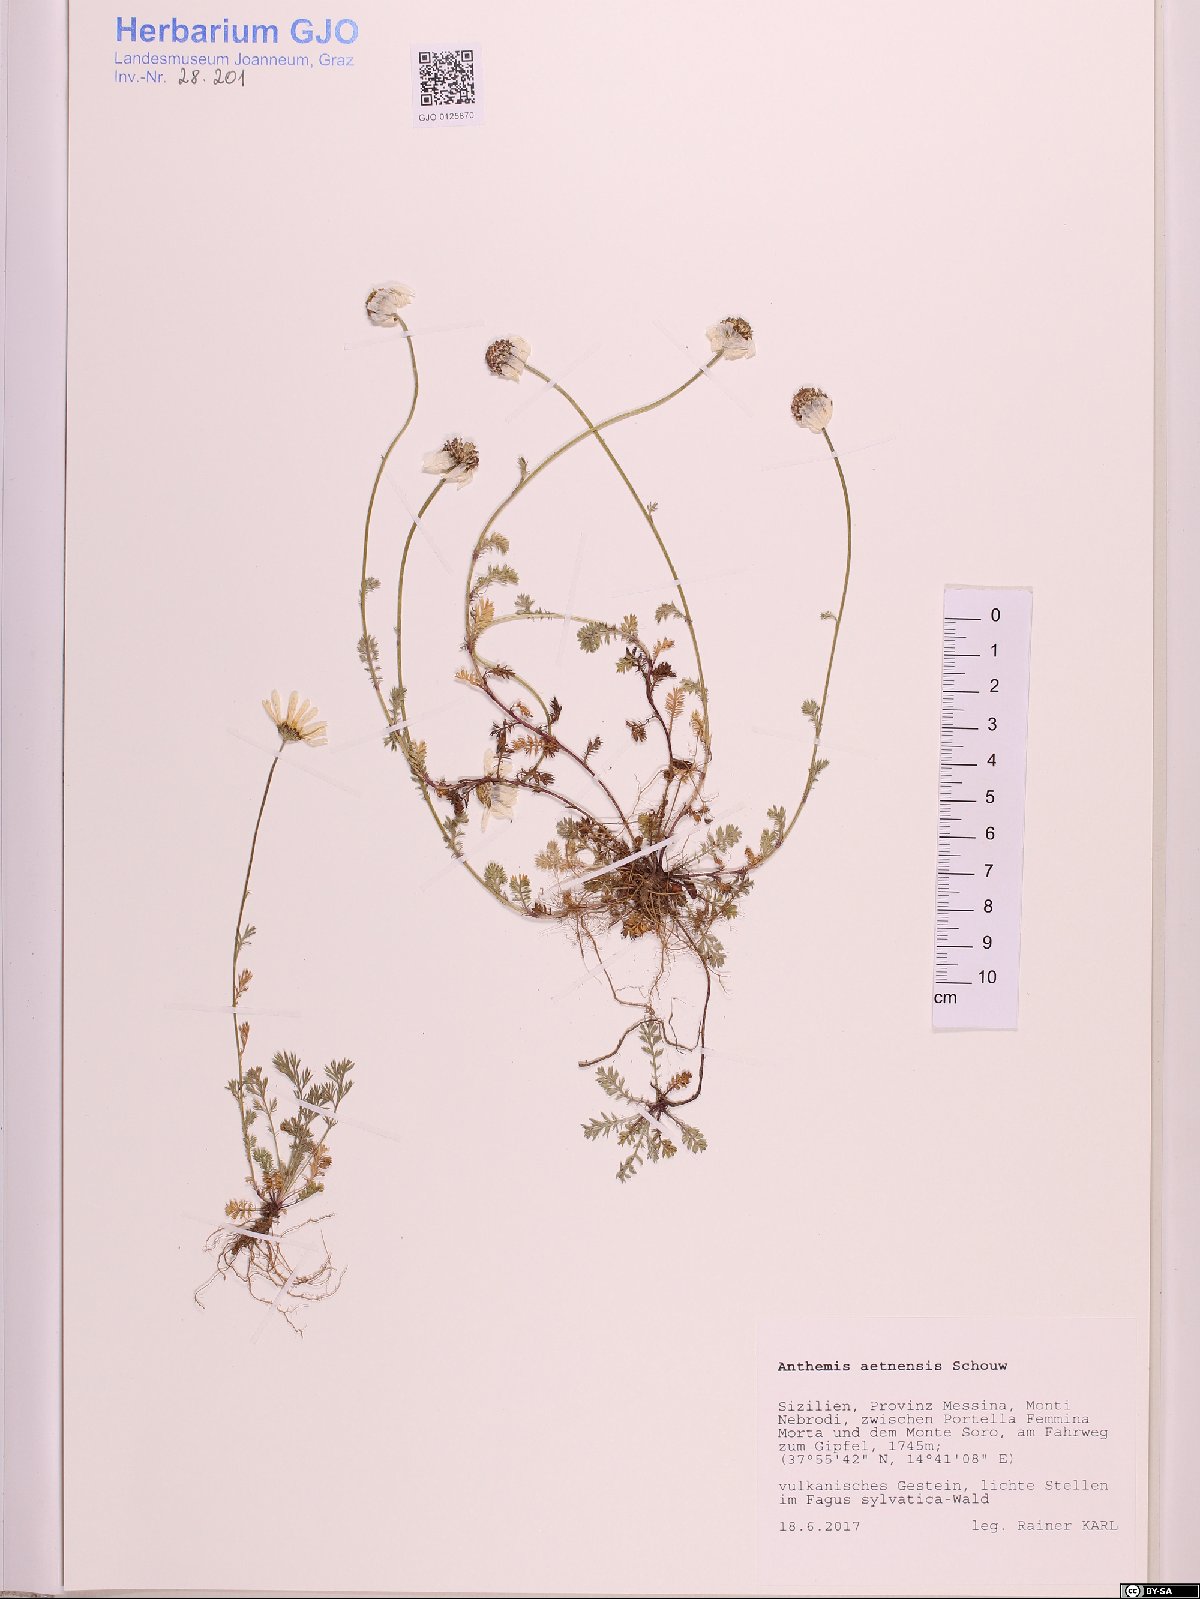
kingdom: Plantae
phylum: Tracheophyta
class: Magnoliopsida
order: Asterales
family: Asteraceae
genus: Anthemis
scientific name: Anthemis aetnensis
